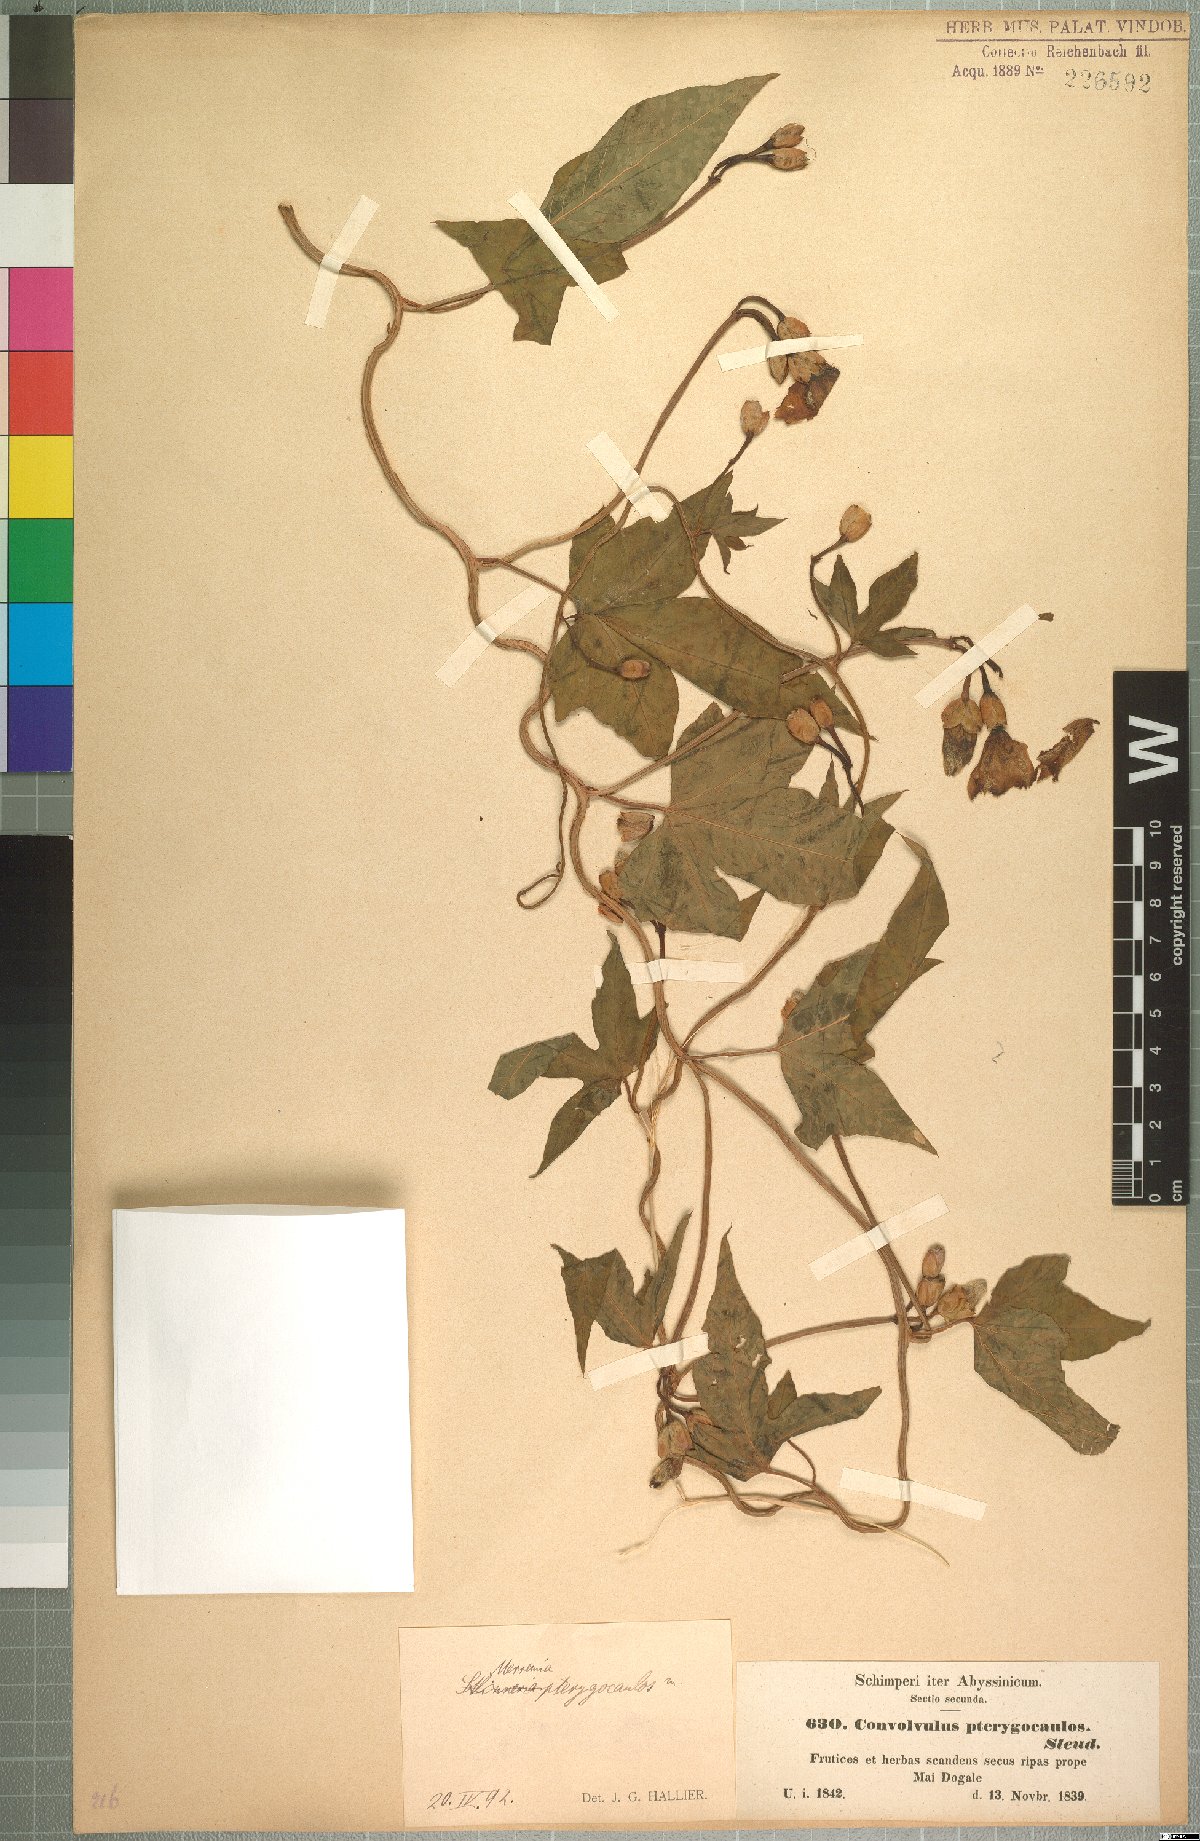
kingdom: Plantae
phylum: Tracheophyta
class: Magnoliopsida
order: Solanales
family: Convolvulaceae
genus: Merremia
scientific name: Merremia pterygocaulos
